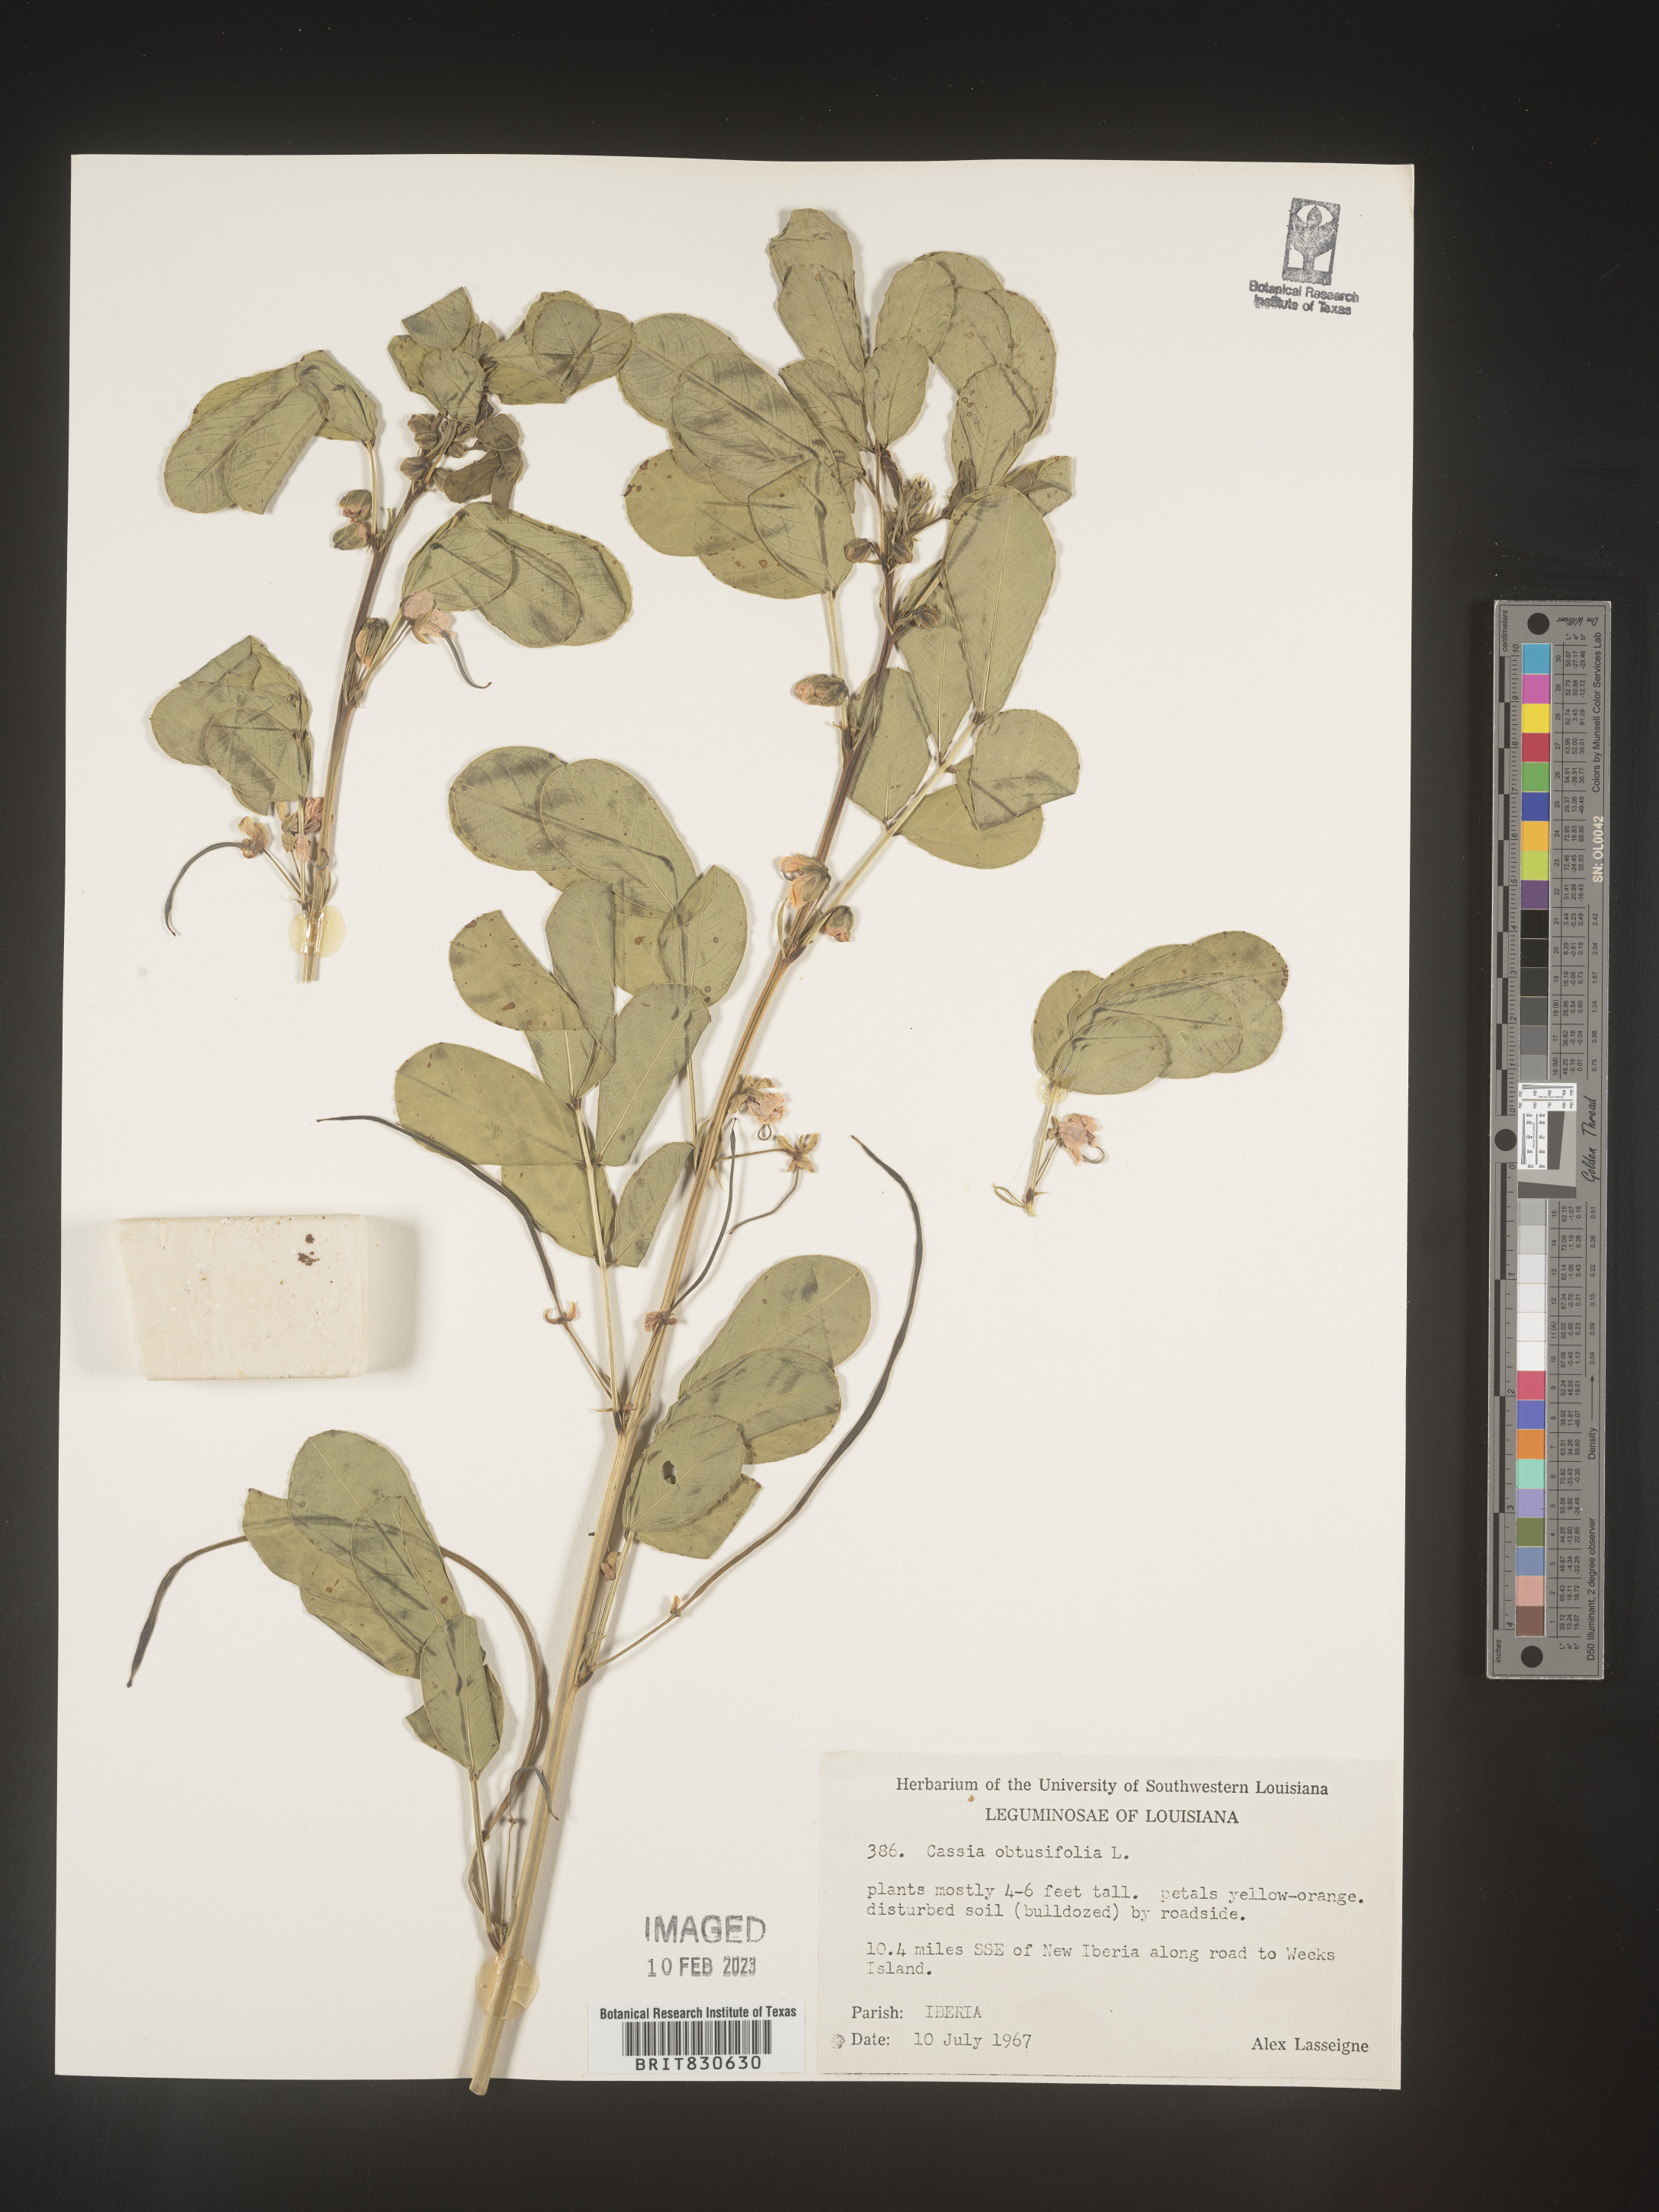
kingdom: Plantae
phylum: Tracheophyta
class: Magnoliopsida
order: Fabales
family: Fabaceae
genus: Senna
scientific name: Senna obtusifolia
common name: Java-bean
